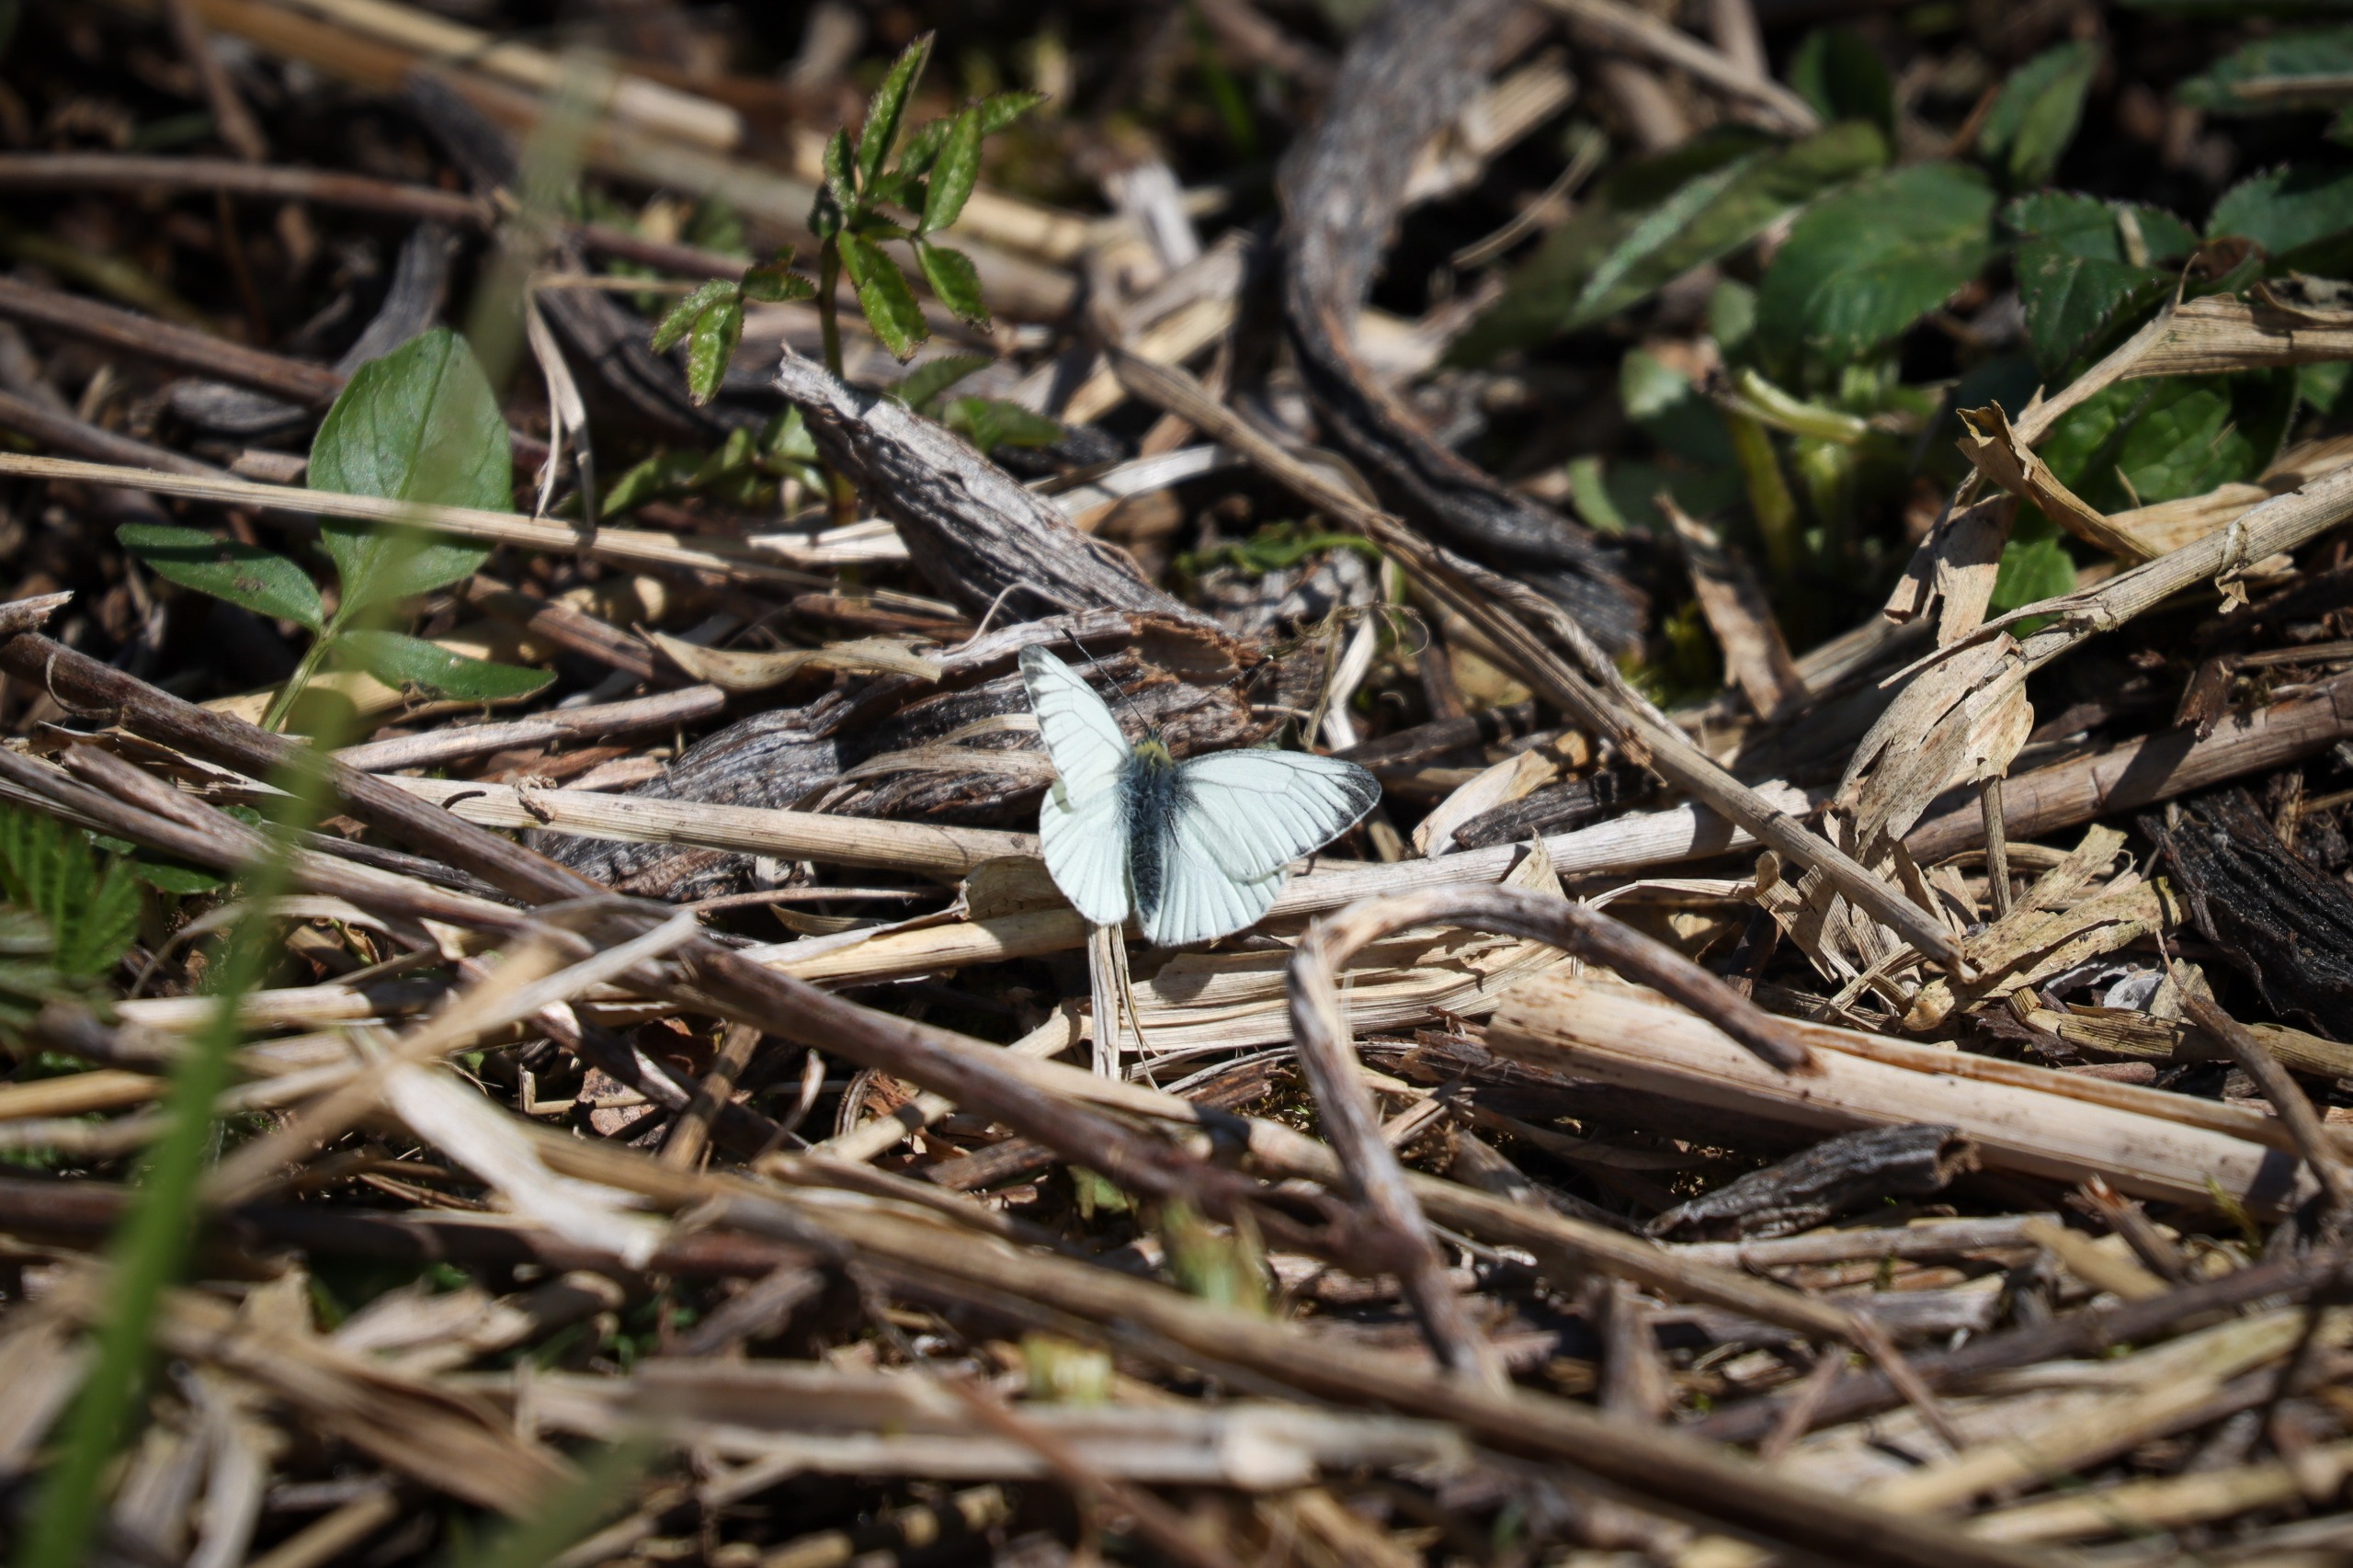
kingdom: Animalia
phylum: Arthropoda
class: Insecta
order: Lepidoptera
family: Pieridae
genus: Pieris
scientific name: Pieris napi
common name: Grønåret kålsommerfugl
